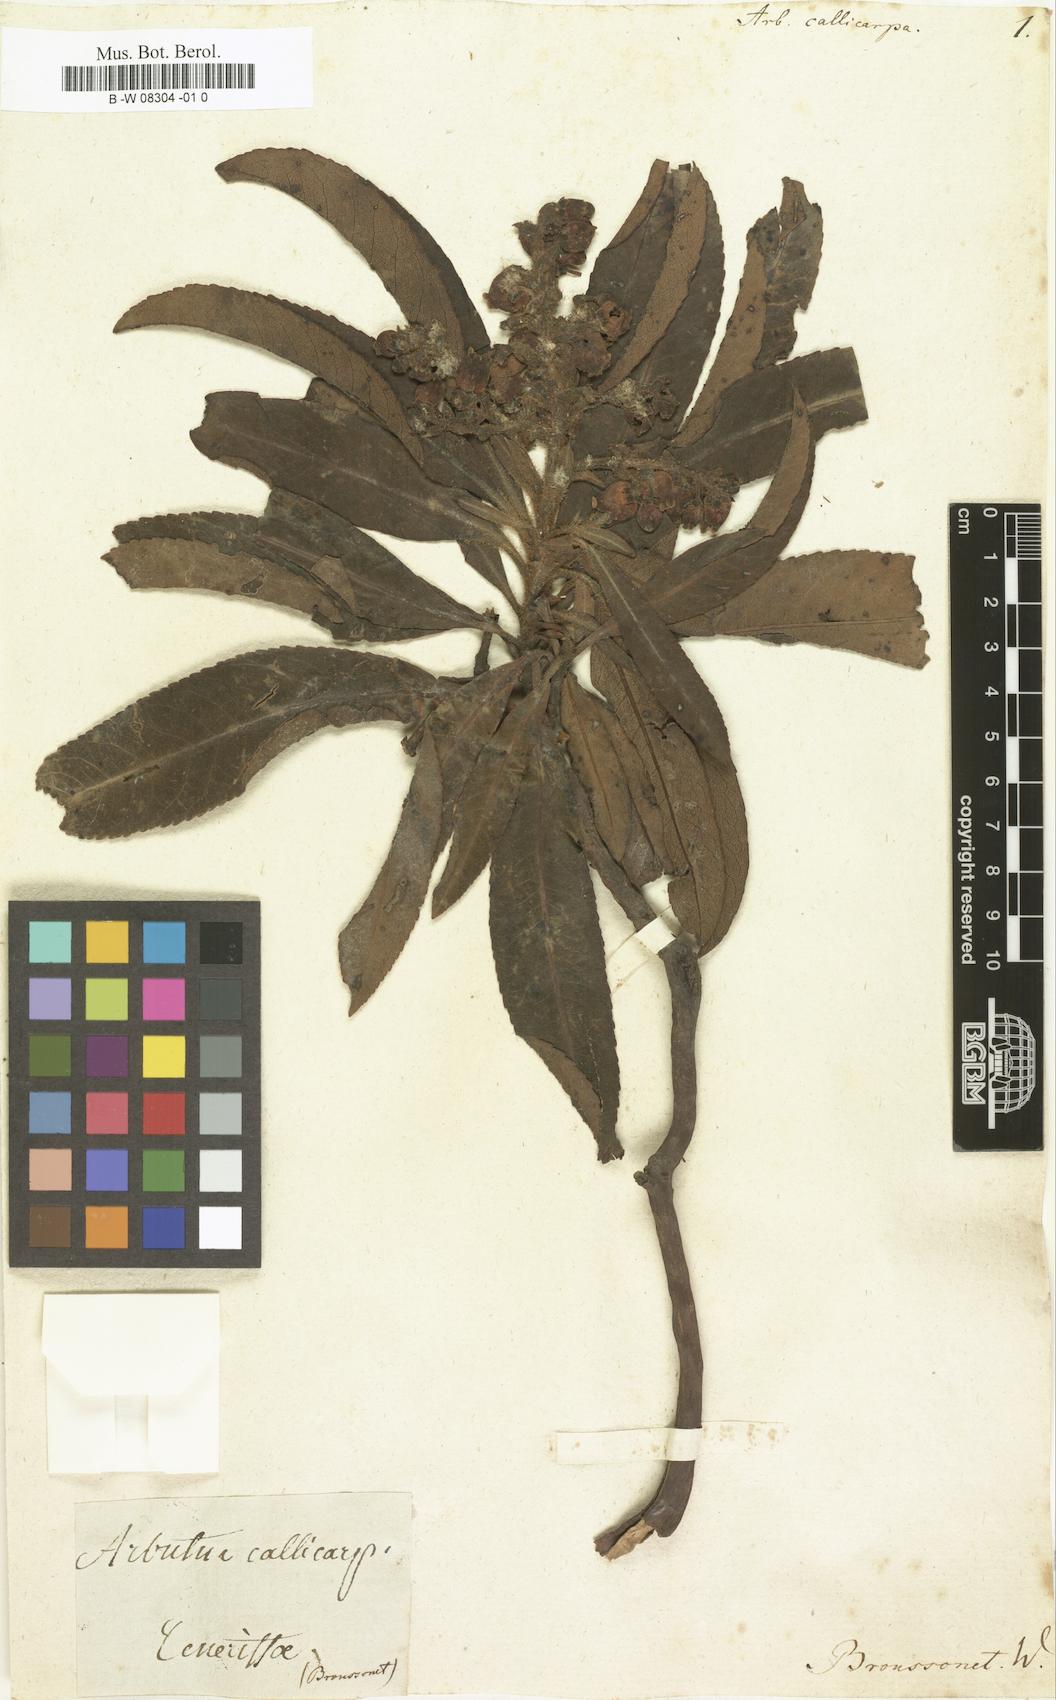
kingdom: Plantae
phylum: Tracheophyta
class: Magnoliopsida
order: Ericales
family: Ericaceae
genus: Arbutus
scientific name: Arbutus canariensis
